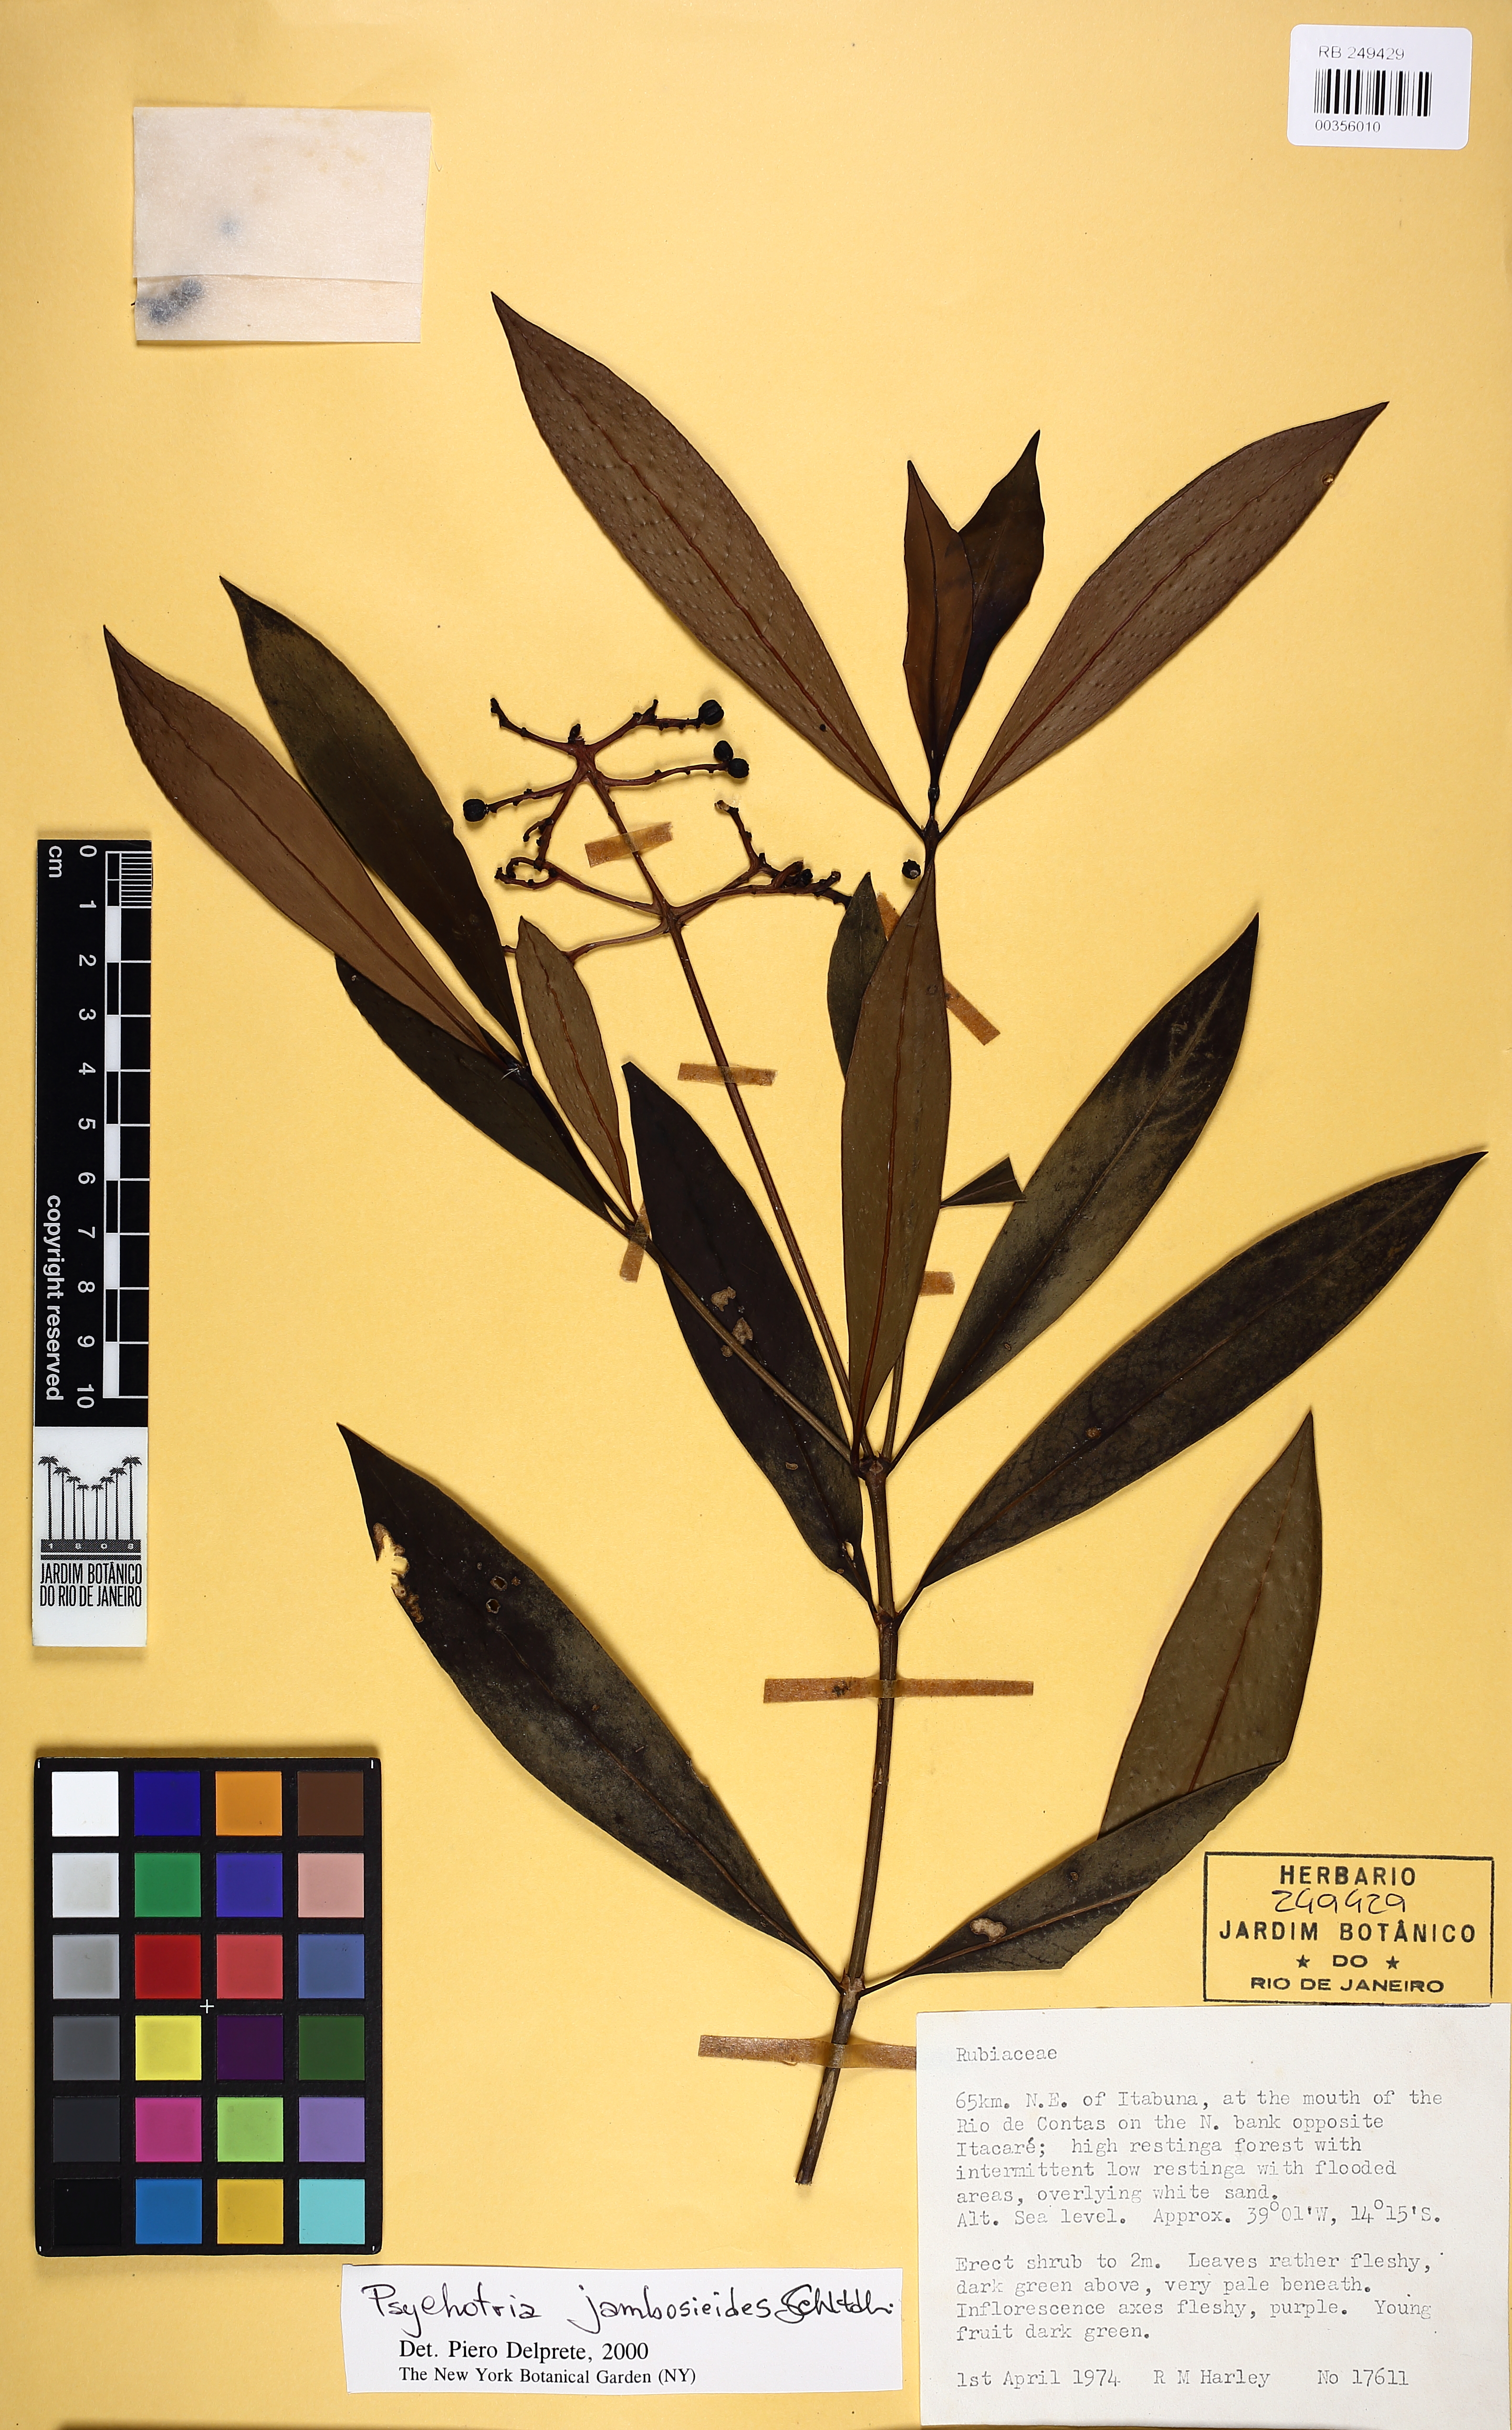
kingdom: Plantae
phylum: Tracheophyta
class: Magnoliopsida
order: Gentianales
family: Rubiaceae
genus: Palicourea
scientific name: Palicourea jambosioides
